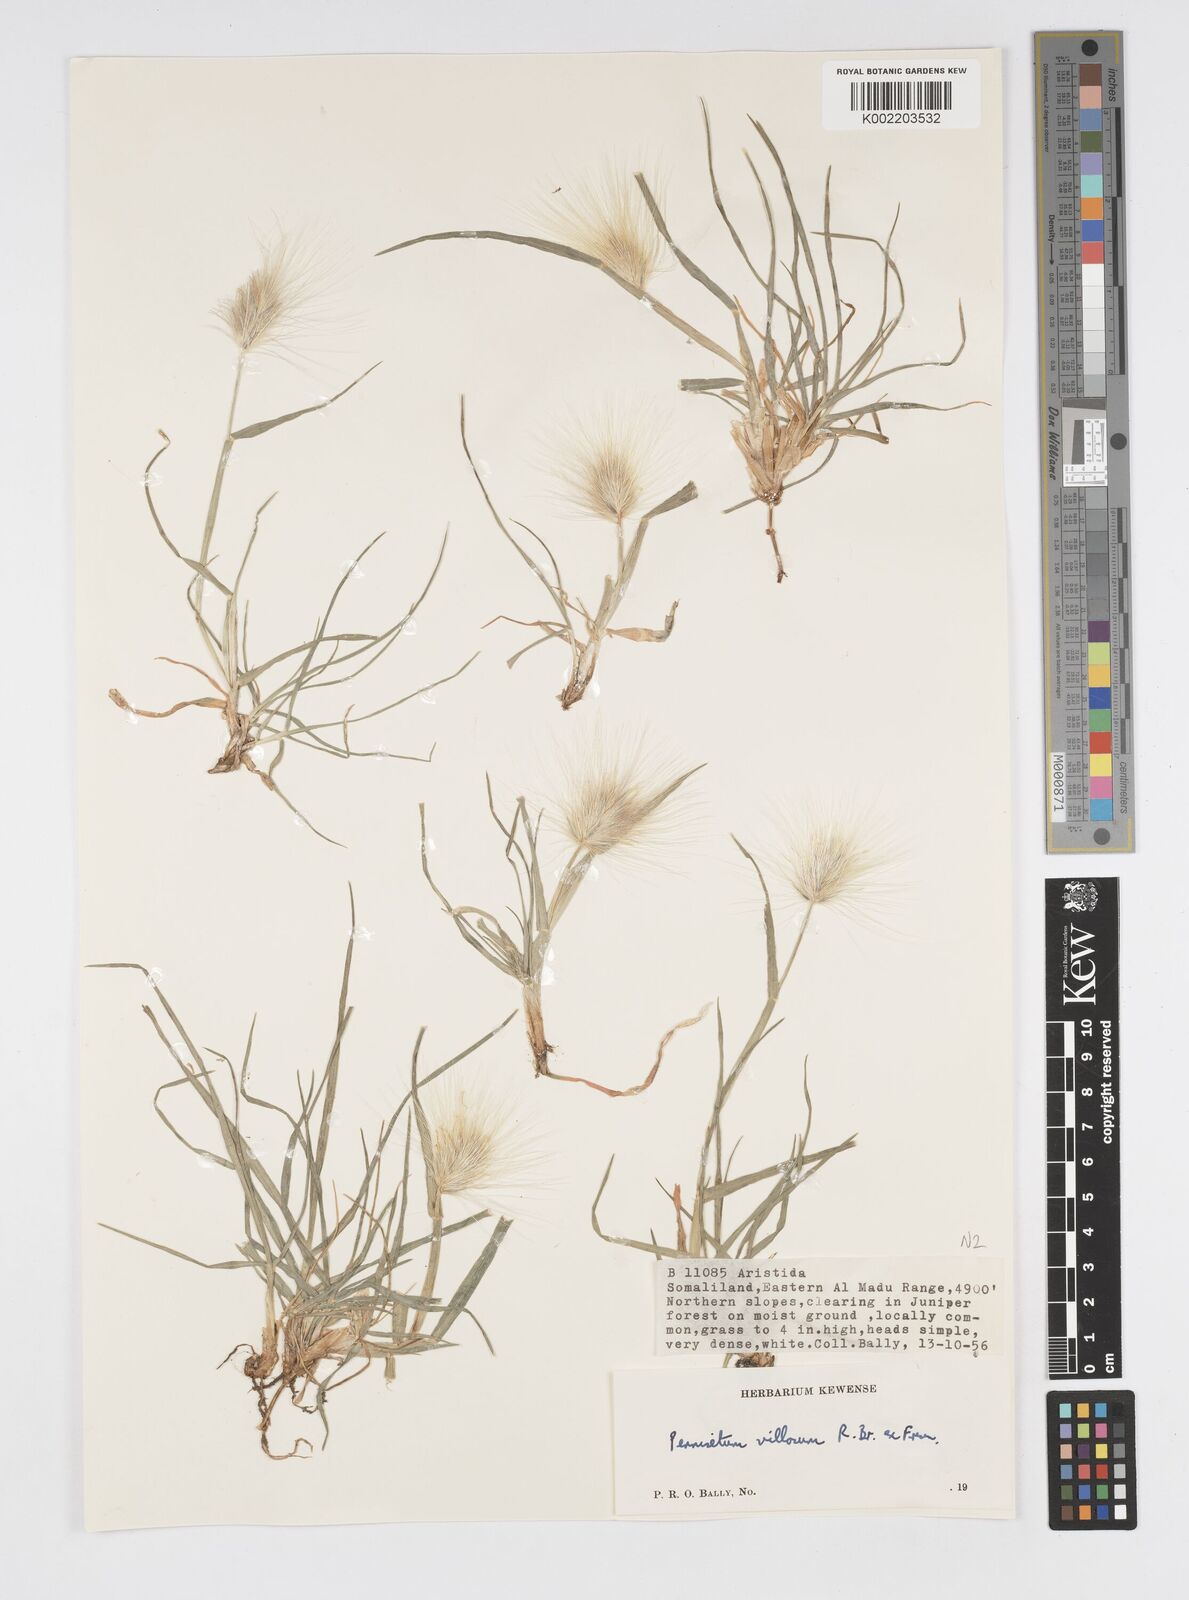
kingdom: Plantae
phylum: Tracheophyta
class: Liliopsida
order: Poales
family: Poaceae
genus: Cenchrus
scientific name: Cenchrus longisetus
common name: Feathertop
